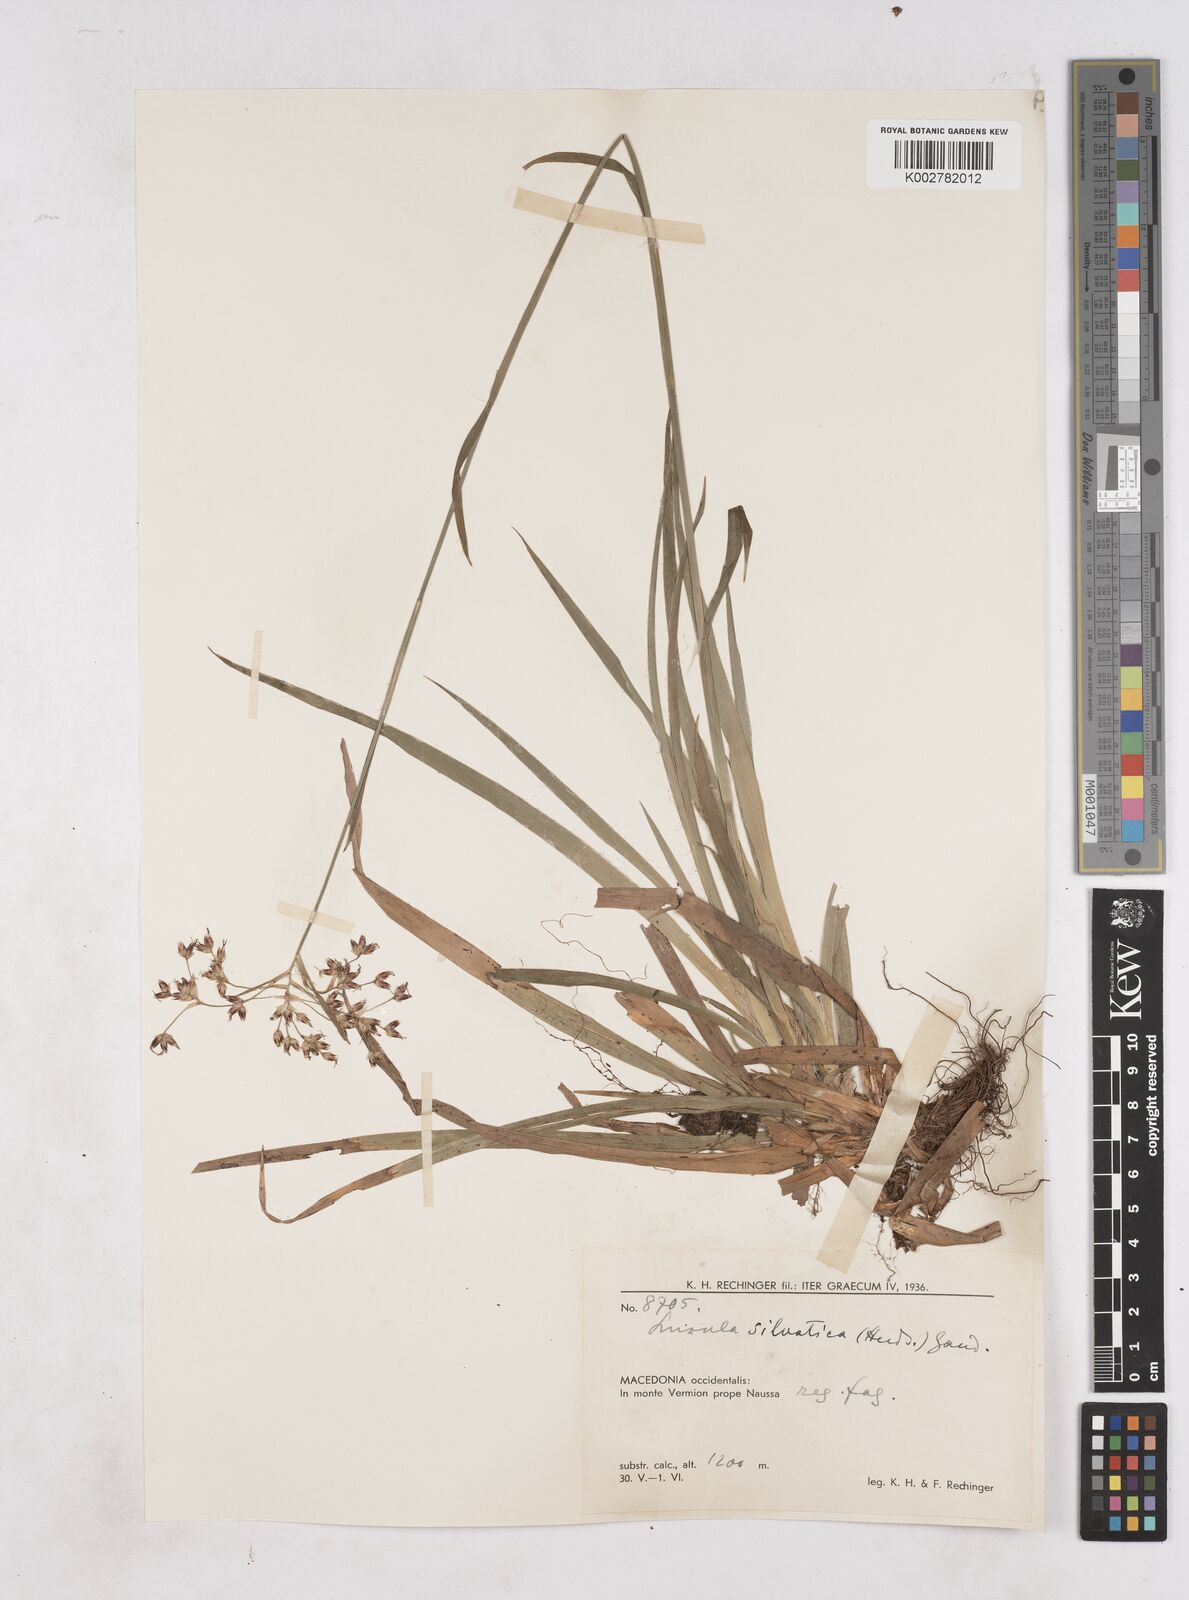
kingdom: Plantae
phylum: Tracheophyta
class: Liliopsida
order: Poales
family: Juncaceae
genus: Luzula
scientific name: Luzula sylvatica
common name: Great wood-rush
